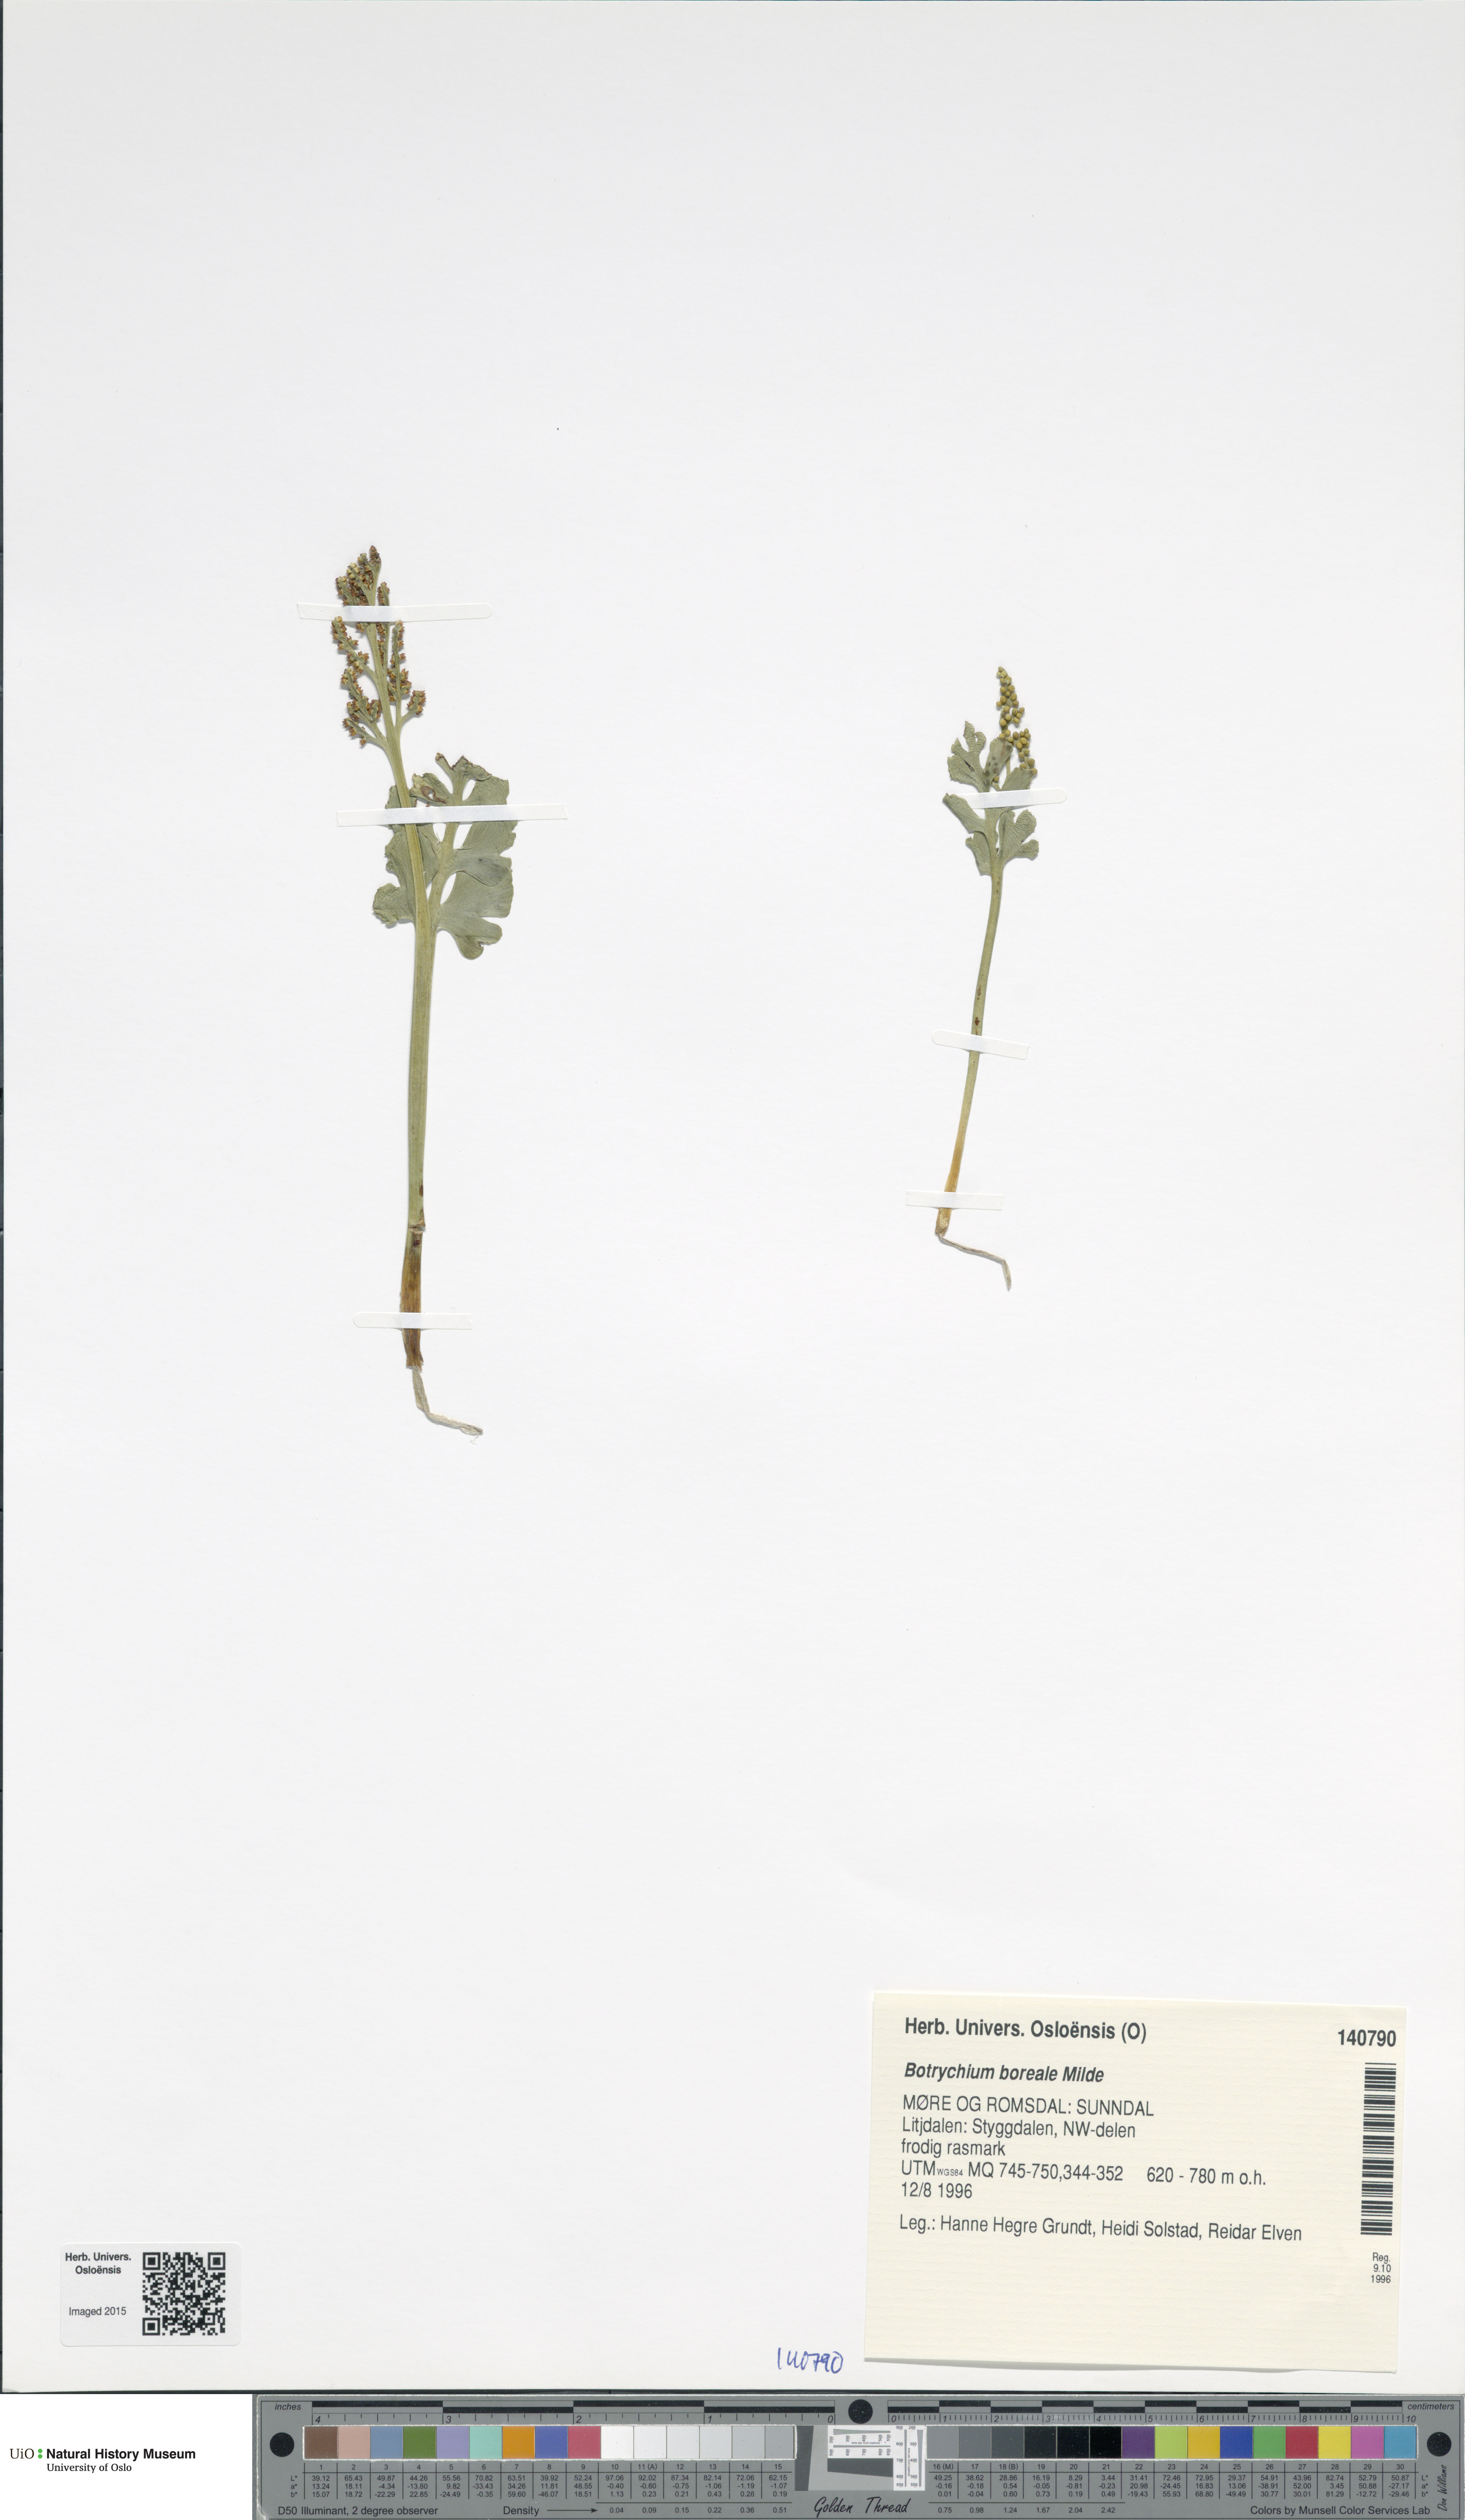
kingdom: Plantae
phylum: Tracheophyta
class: Polypodiopsida
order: Ophioglossales
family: Ophioglossaceae
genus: Botrychium
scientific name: Botrychium boreale
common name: Boreal moonwort
